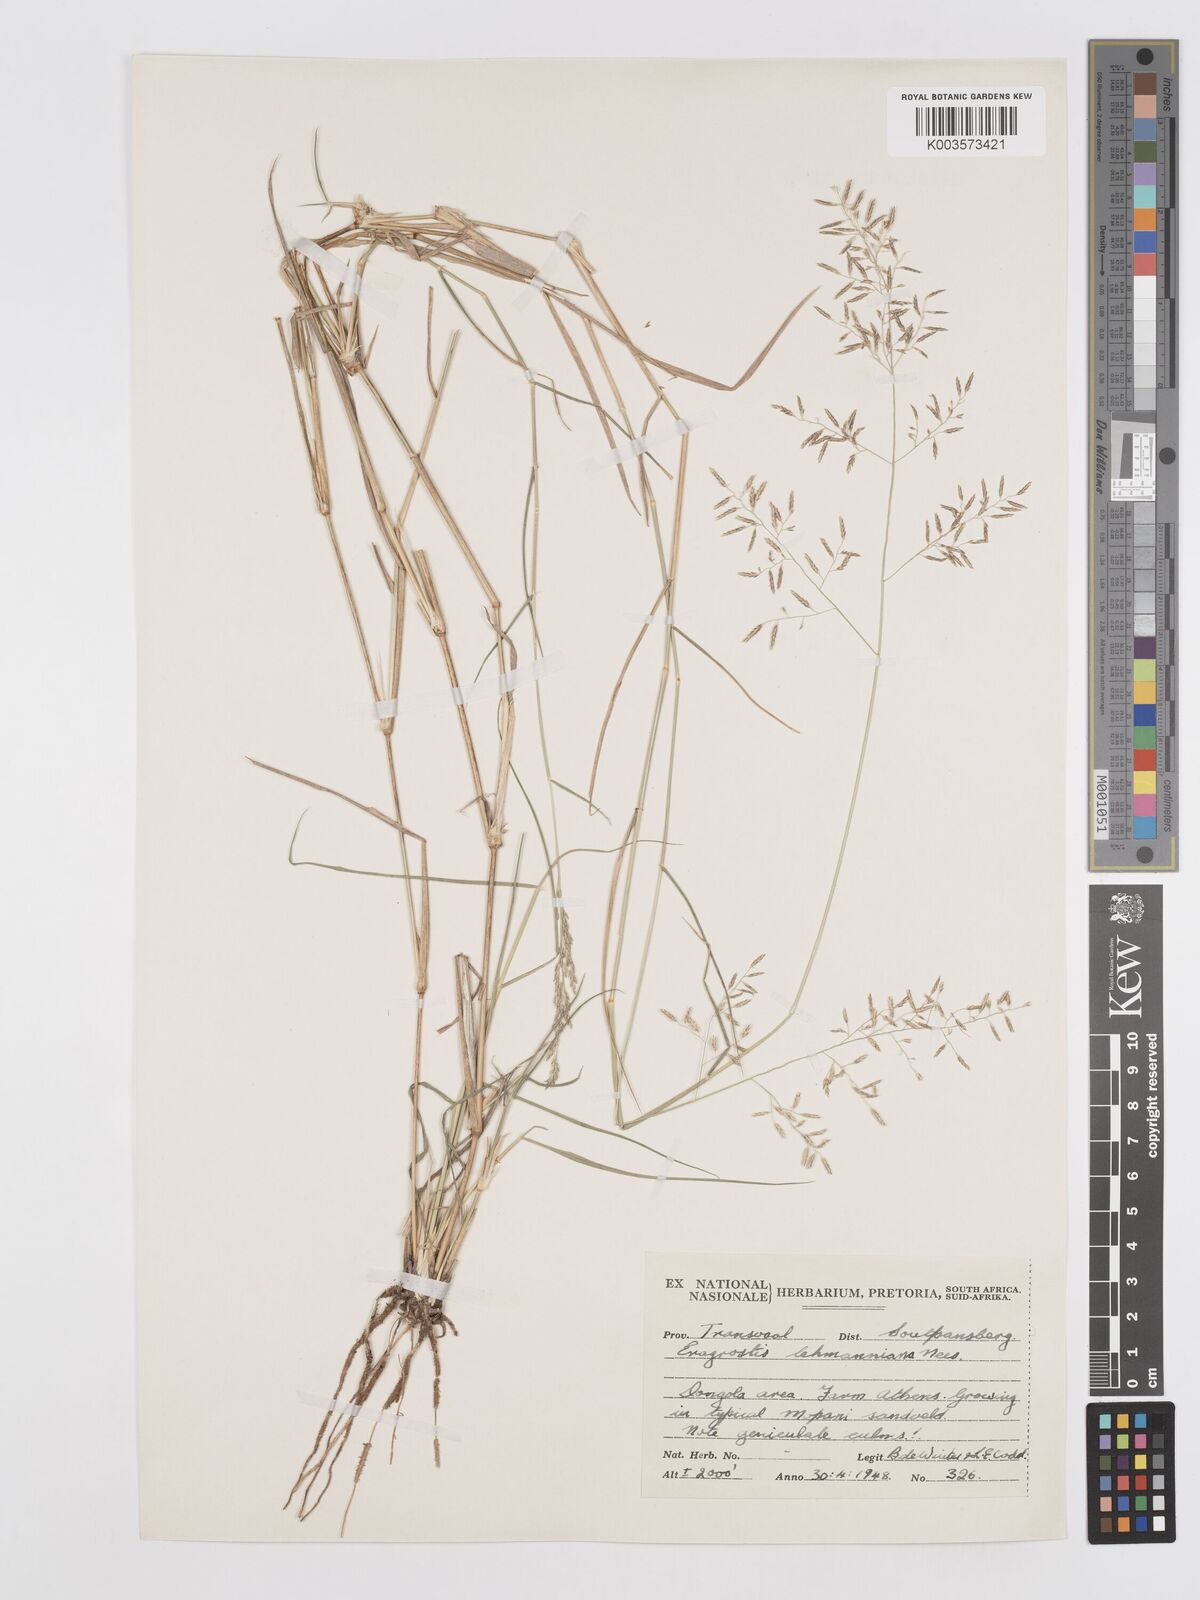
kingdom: Plantae
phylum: Tracheophyta
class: Liliopsida
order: Poales
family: Poaceae
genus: Eragrostis
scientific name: Eragrostis lehmanniana
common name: Lehmann lovegrass
